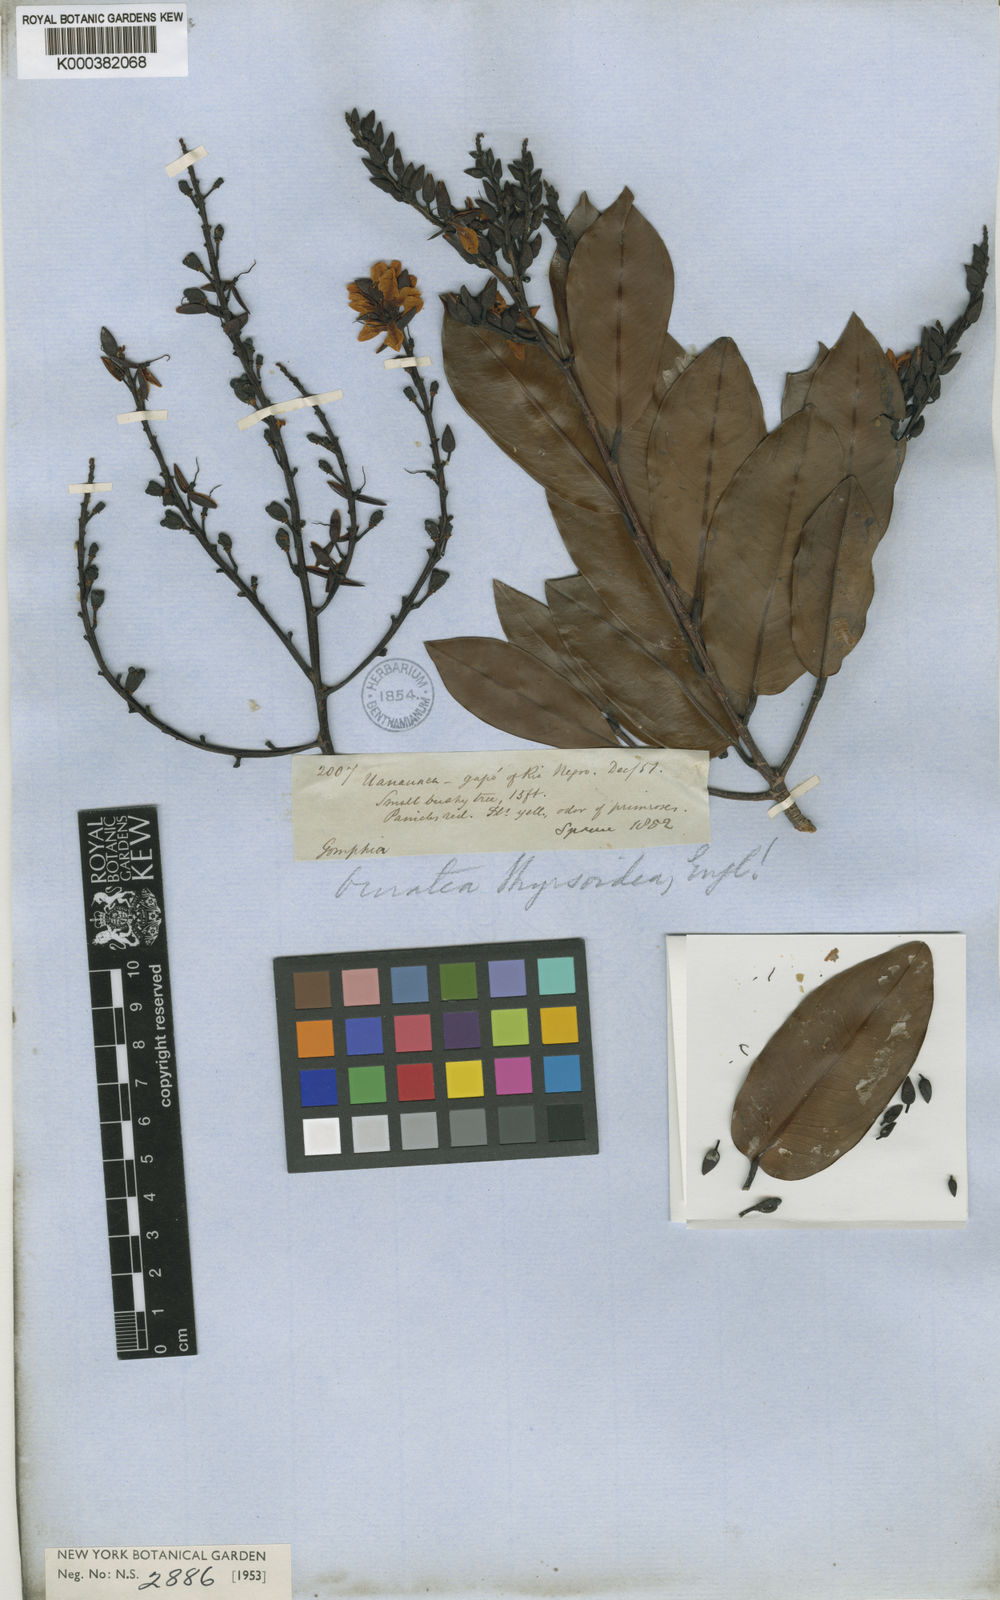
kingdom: Plantae
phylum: Tracheophyta
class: Magnoliopsida
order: Malpighiales
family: Ochnaceae
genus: Ouratea
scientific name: Ouratea thyrsoidea
